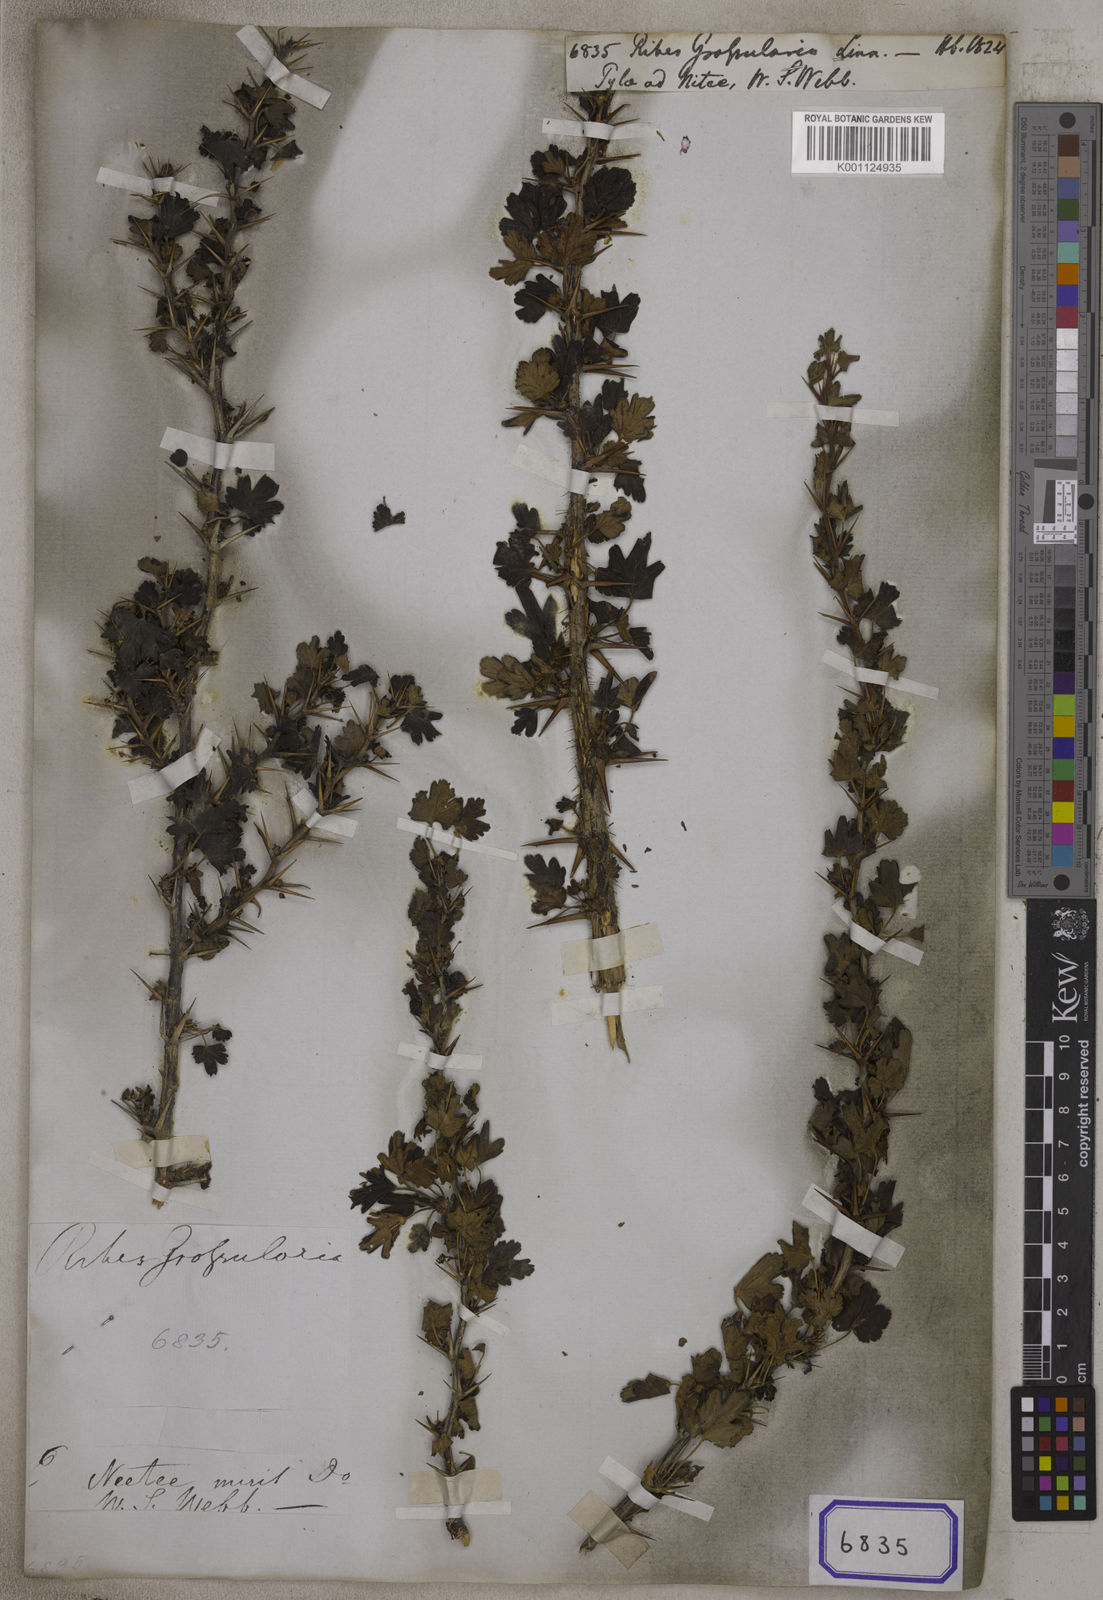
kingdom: Plantae
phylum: Tracheophyta
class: Magnoliopsida
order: Saxifragales
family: Grossulariaceae
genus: Ribes
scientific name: Ribes uva-crispa
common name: Gooseberry
